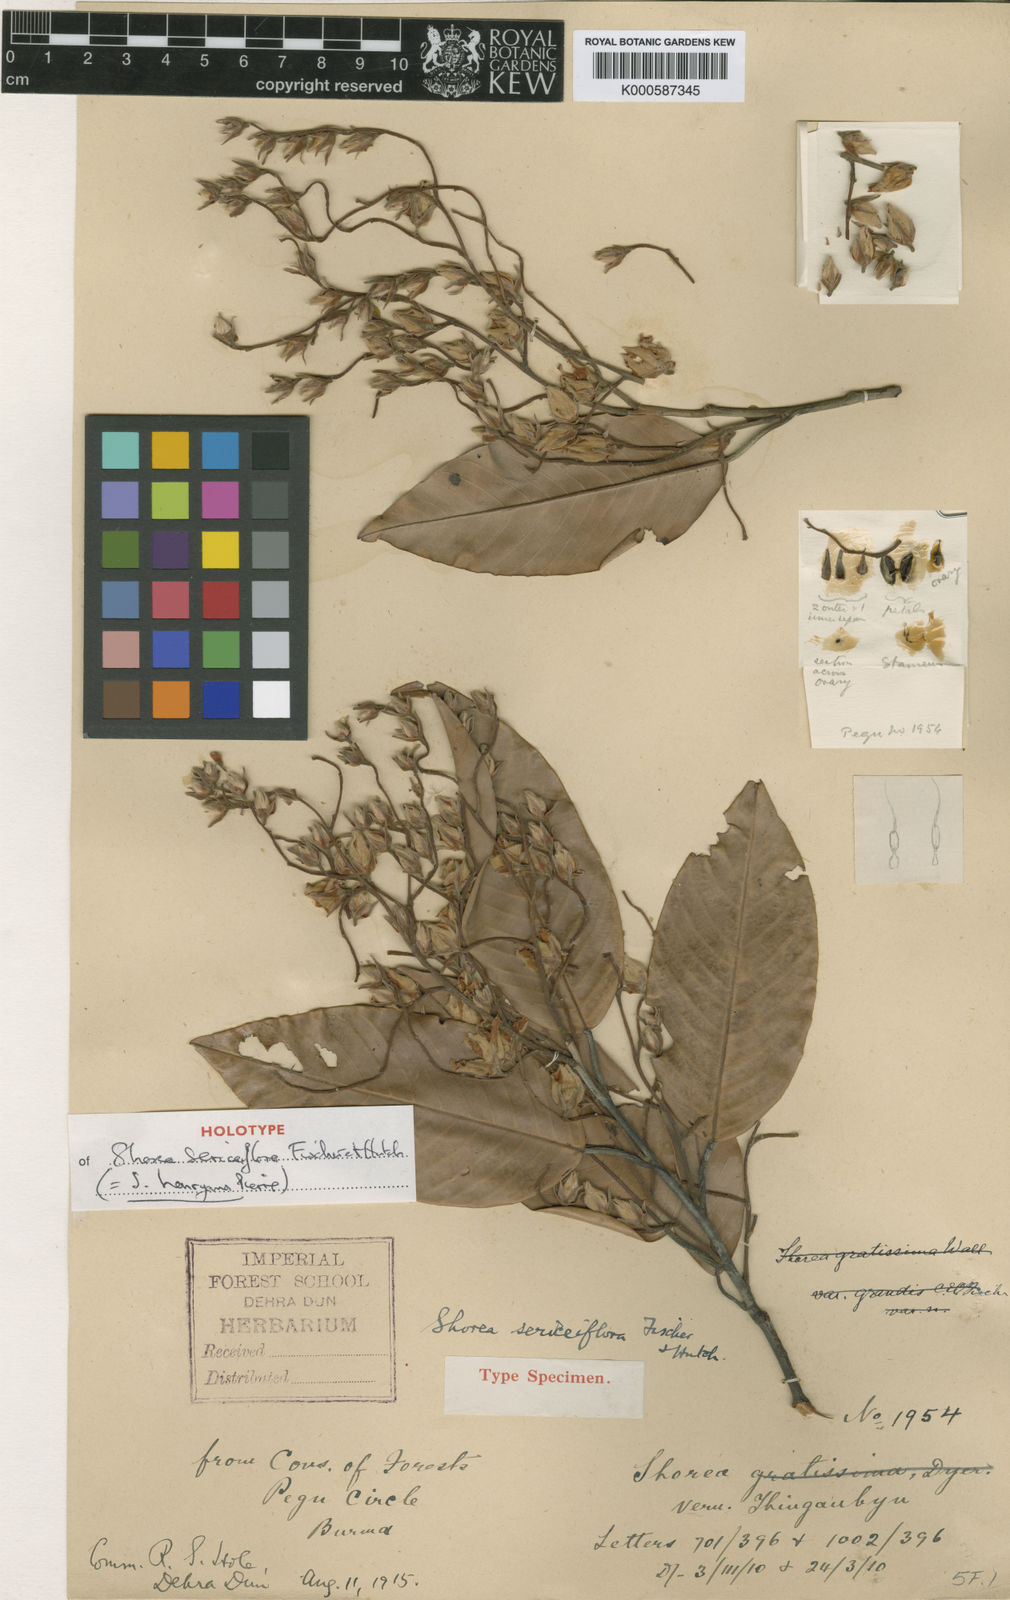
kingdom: Plantae
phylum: Tracheophyta
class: Magnoliopsida
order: Malvales
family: Dipterocarpaceae
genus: Shorea
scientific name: Shorea
